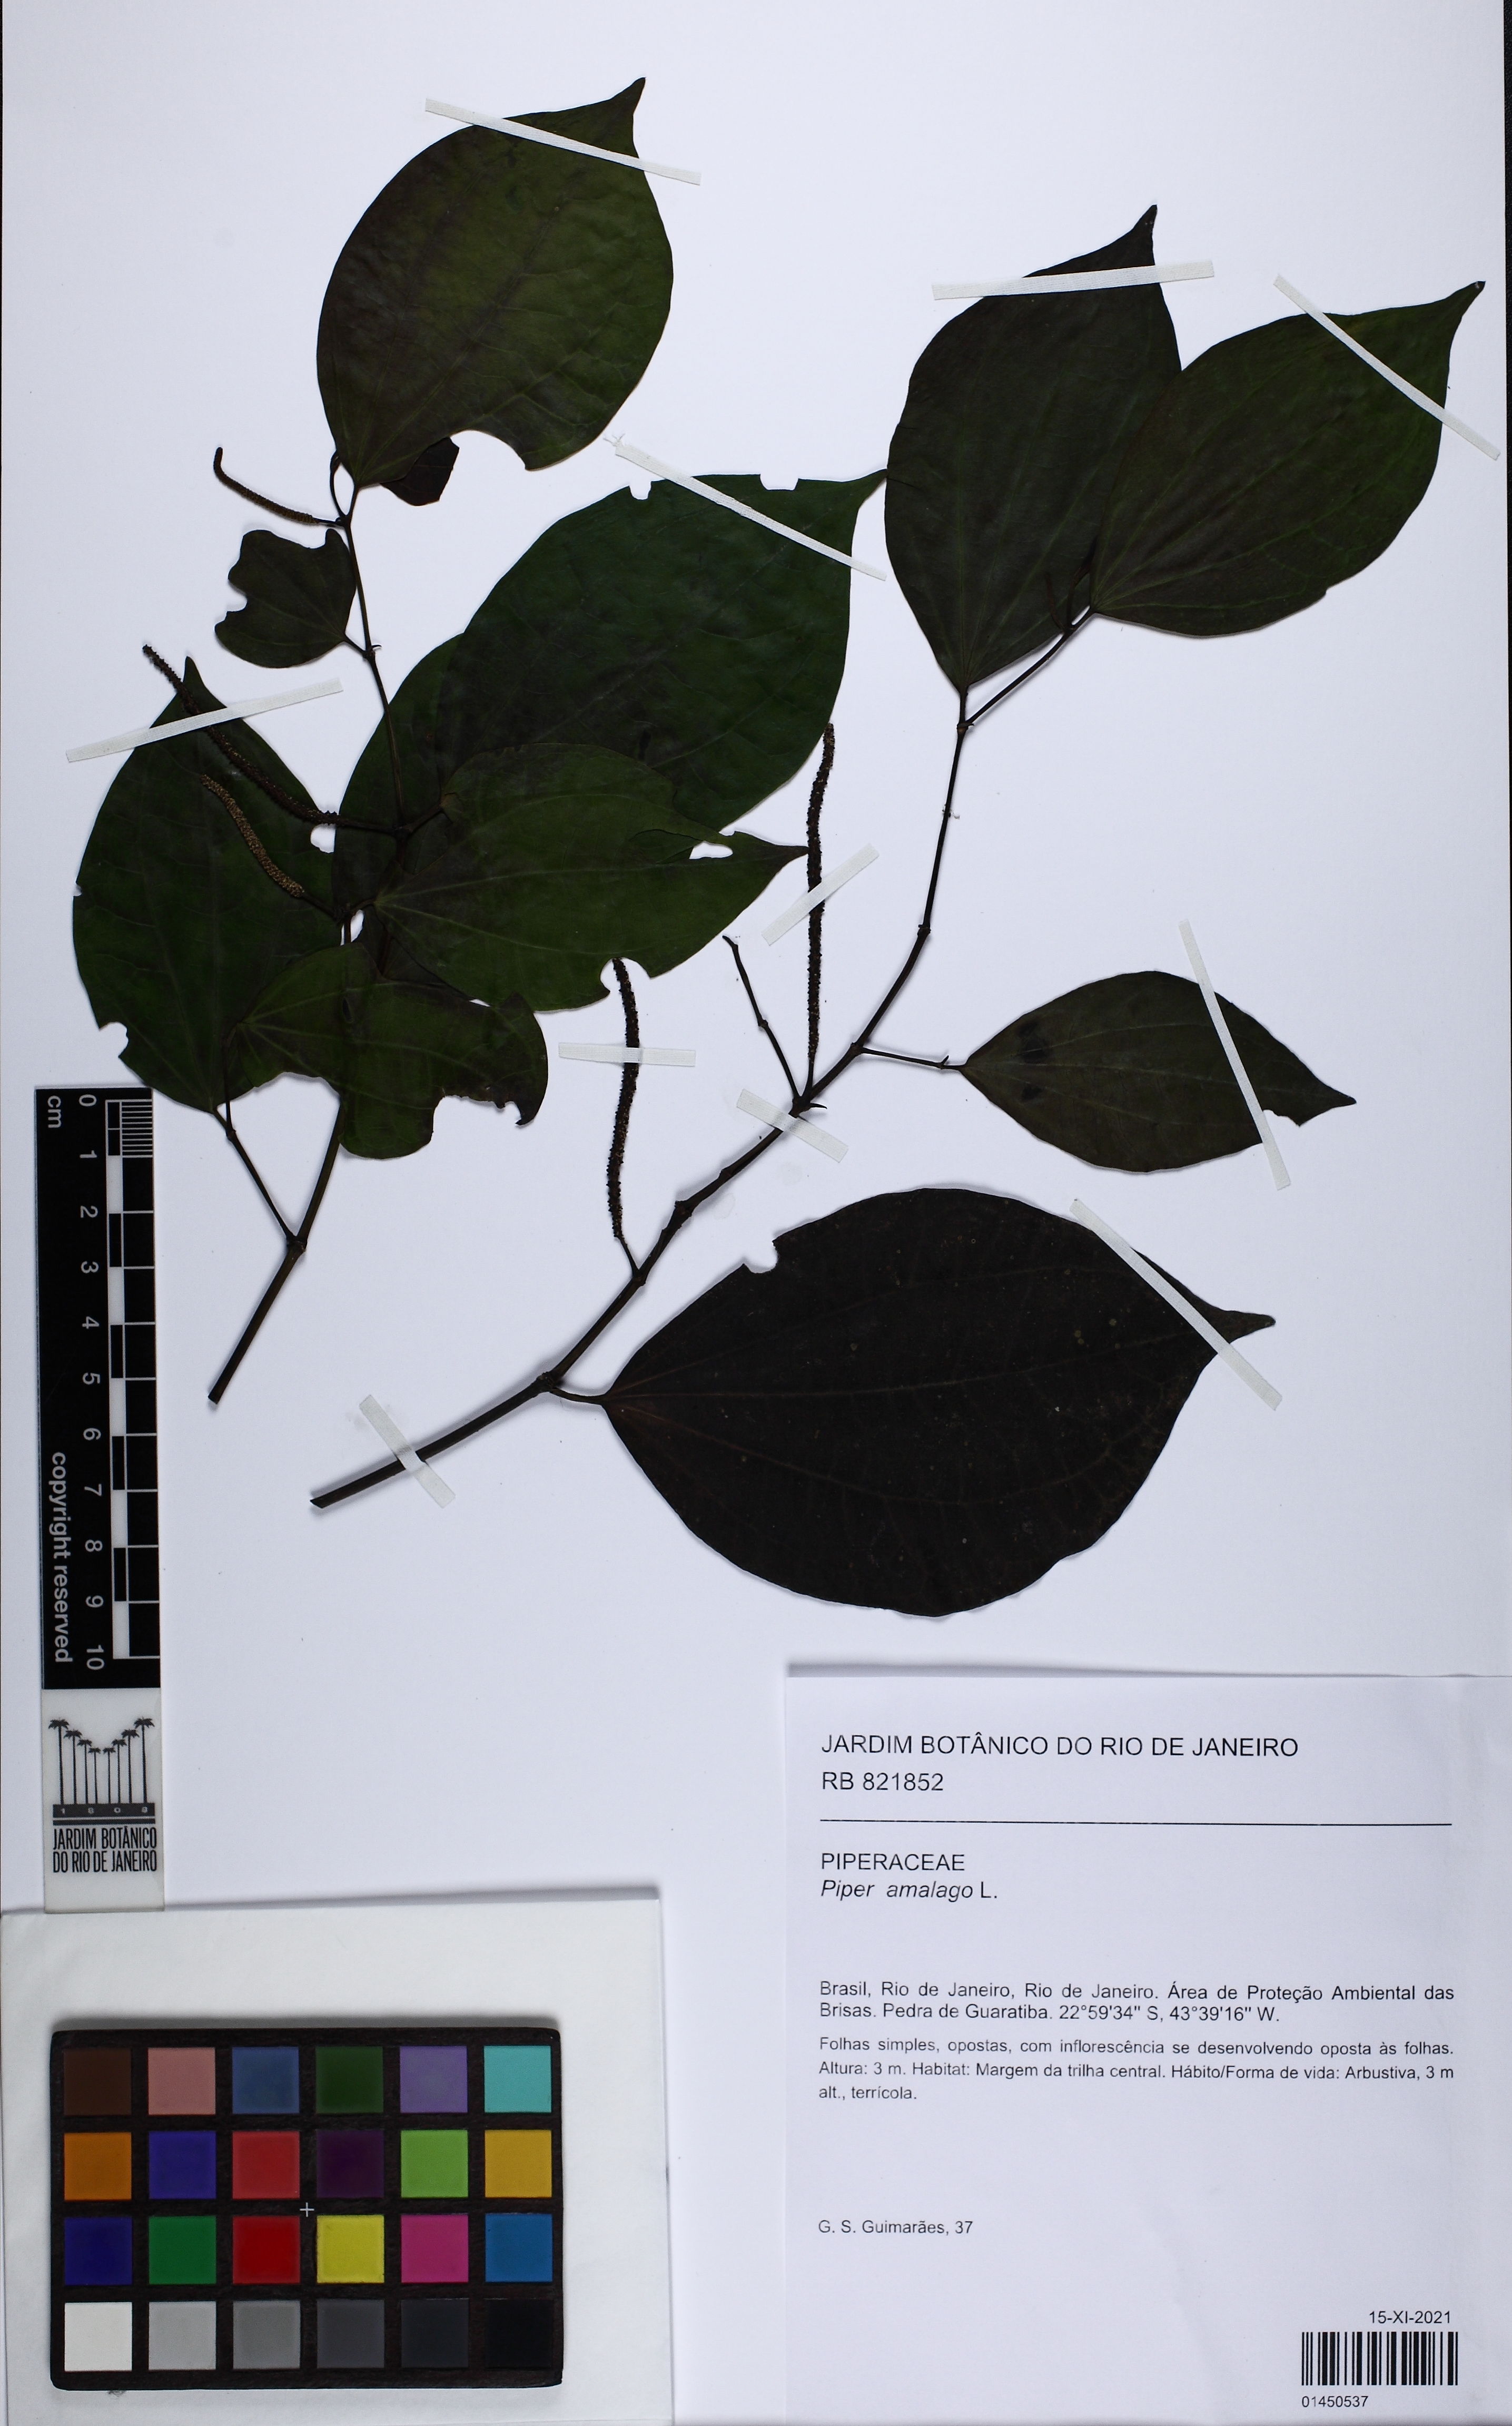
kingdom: Plantae
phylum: Tracheophyta
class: Magnoliopsida
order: Piperales
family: Piperaceae
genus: Piper
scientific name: Piper amalago
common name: Pepper-elder
